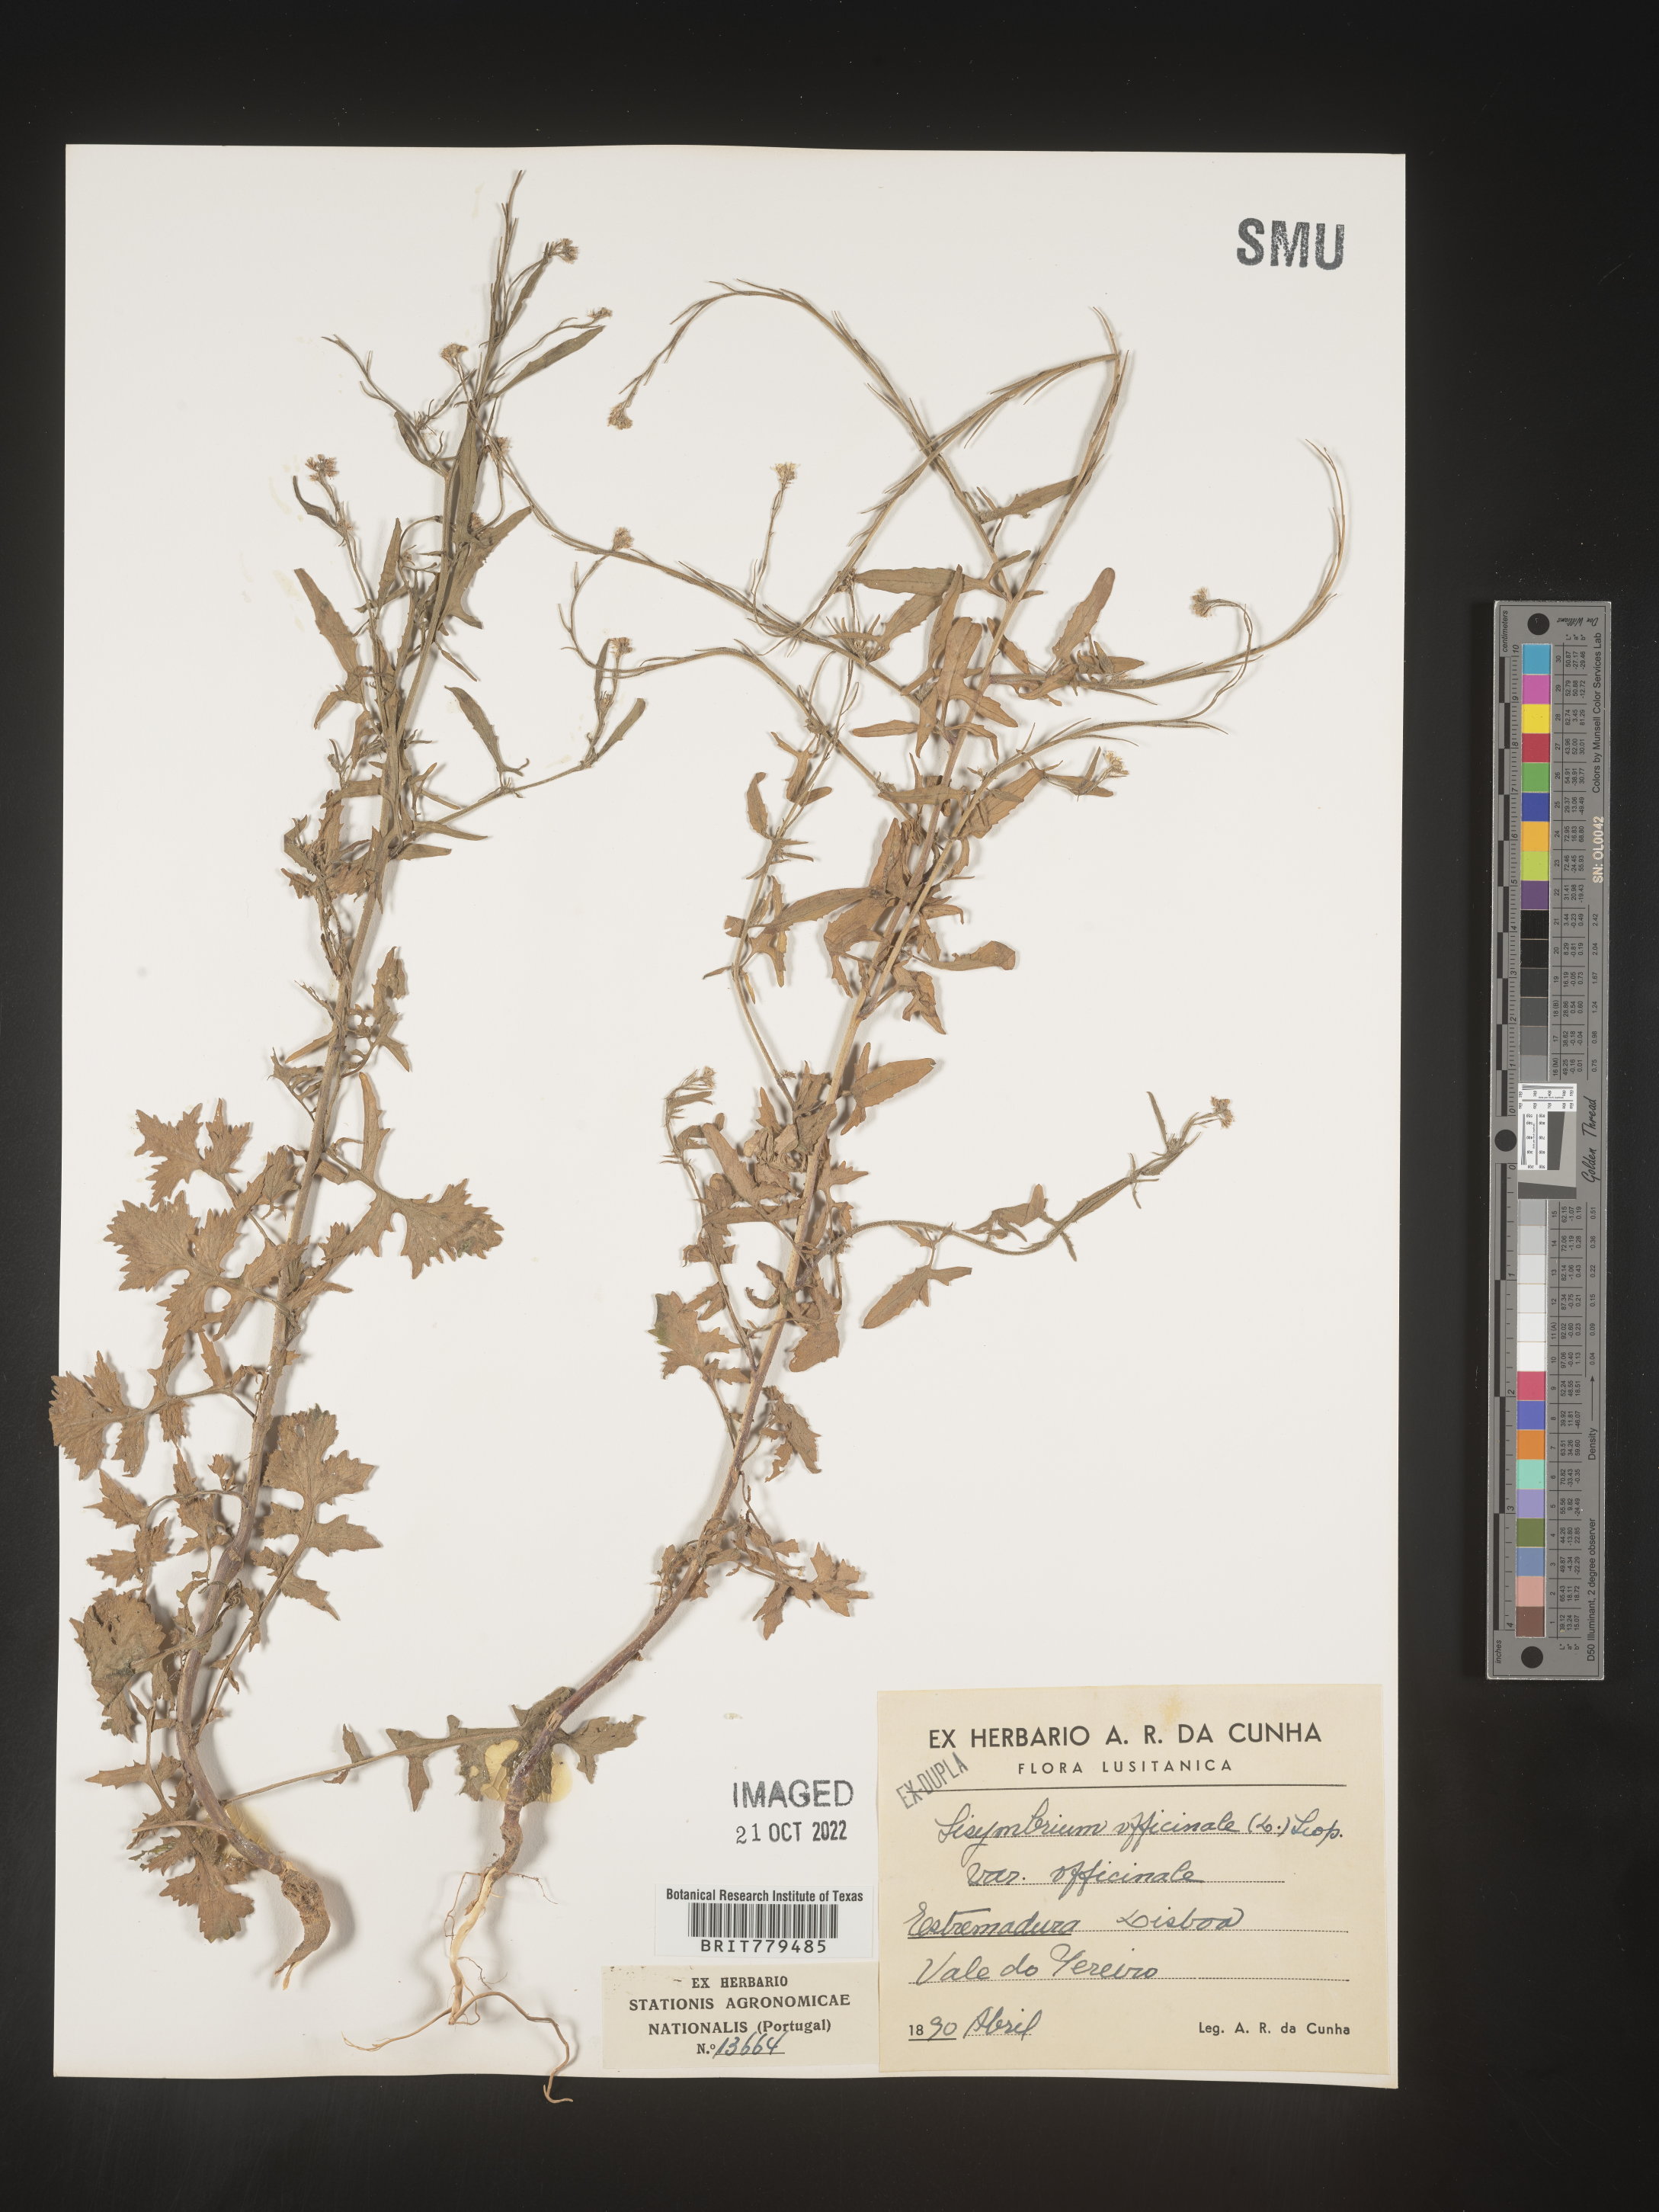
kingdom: Plantae
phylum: Tracheophyta
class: Magnoliopsida
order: Brassicales
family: Brassicaceae
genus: Sisymbrium
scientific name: Sisymbrium
